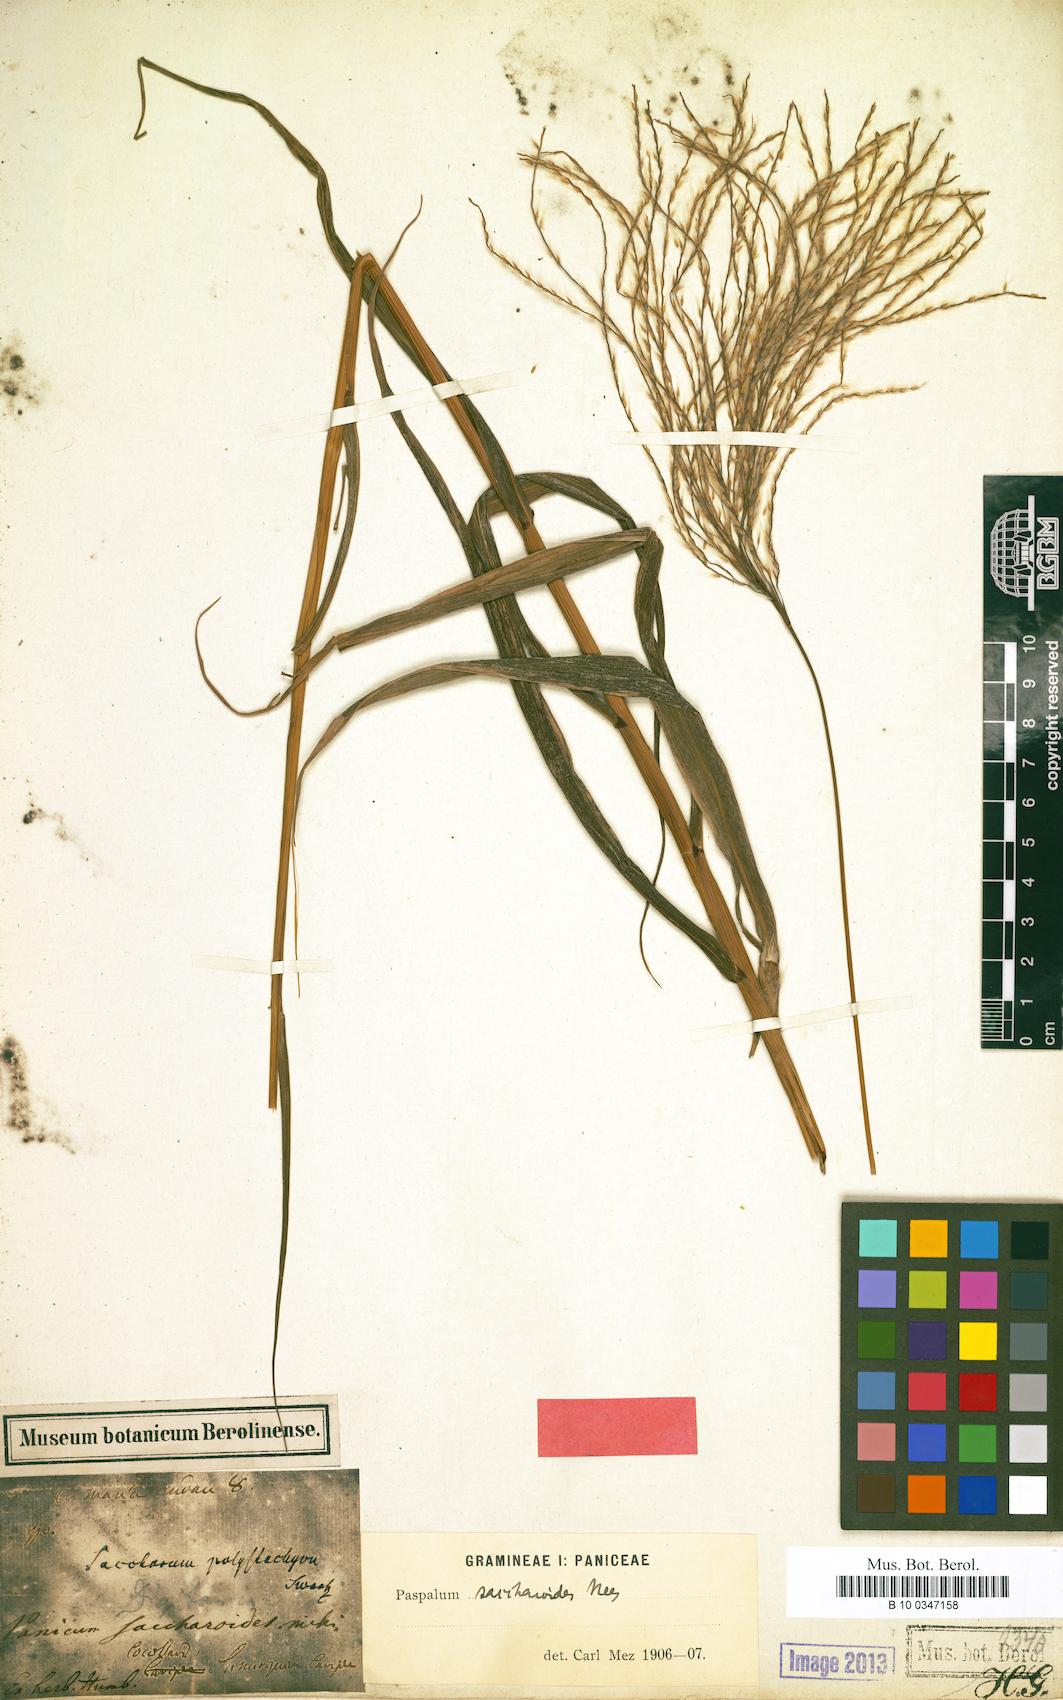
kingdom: Plantae
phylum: Tracheophyta
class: Liliopsida
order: Poales
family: Poaceae
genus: Paspalum
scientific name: Paspalum saccharoides
